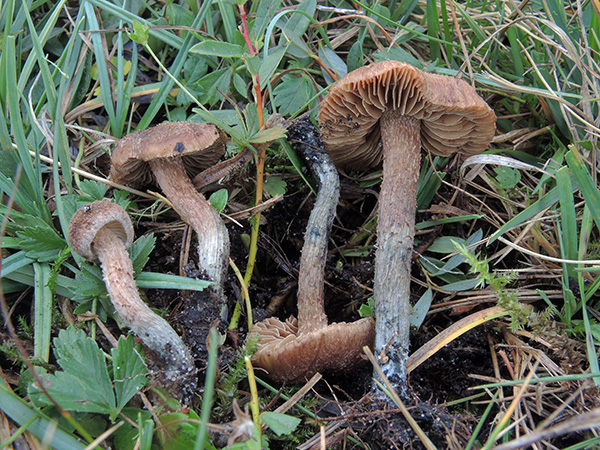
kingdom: Fungi
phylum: Basidiomycota
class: Agaricomycetes
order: Agaricales
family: Inocybaceae
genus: Inosperma
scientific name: Inosperma calamistratum
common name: grønfodet trævlhat
